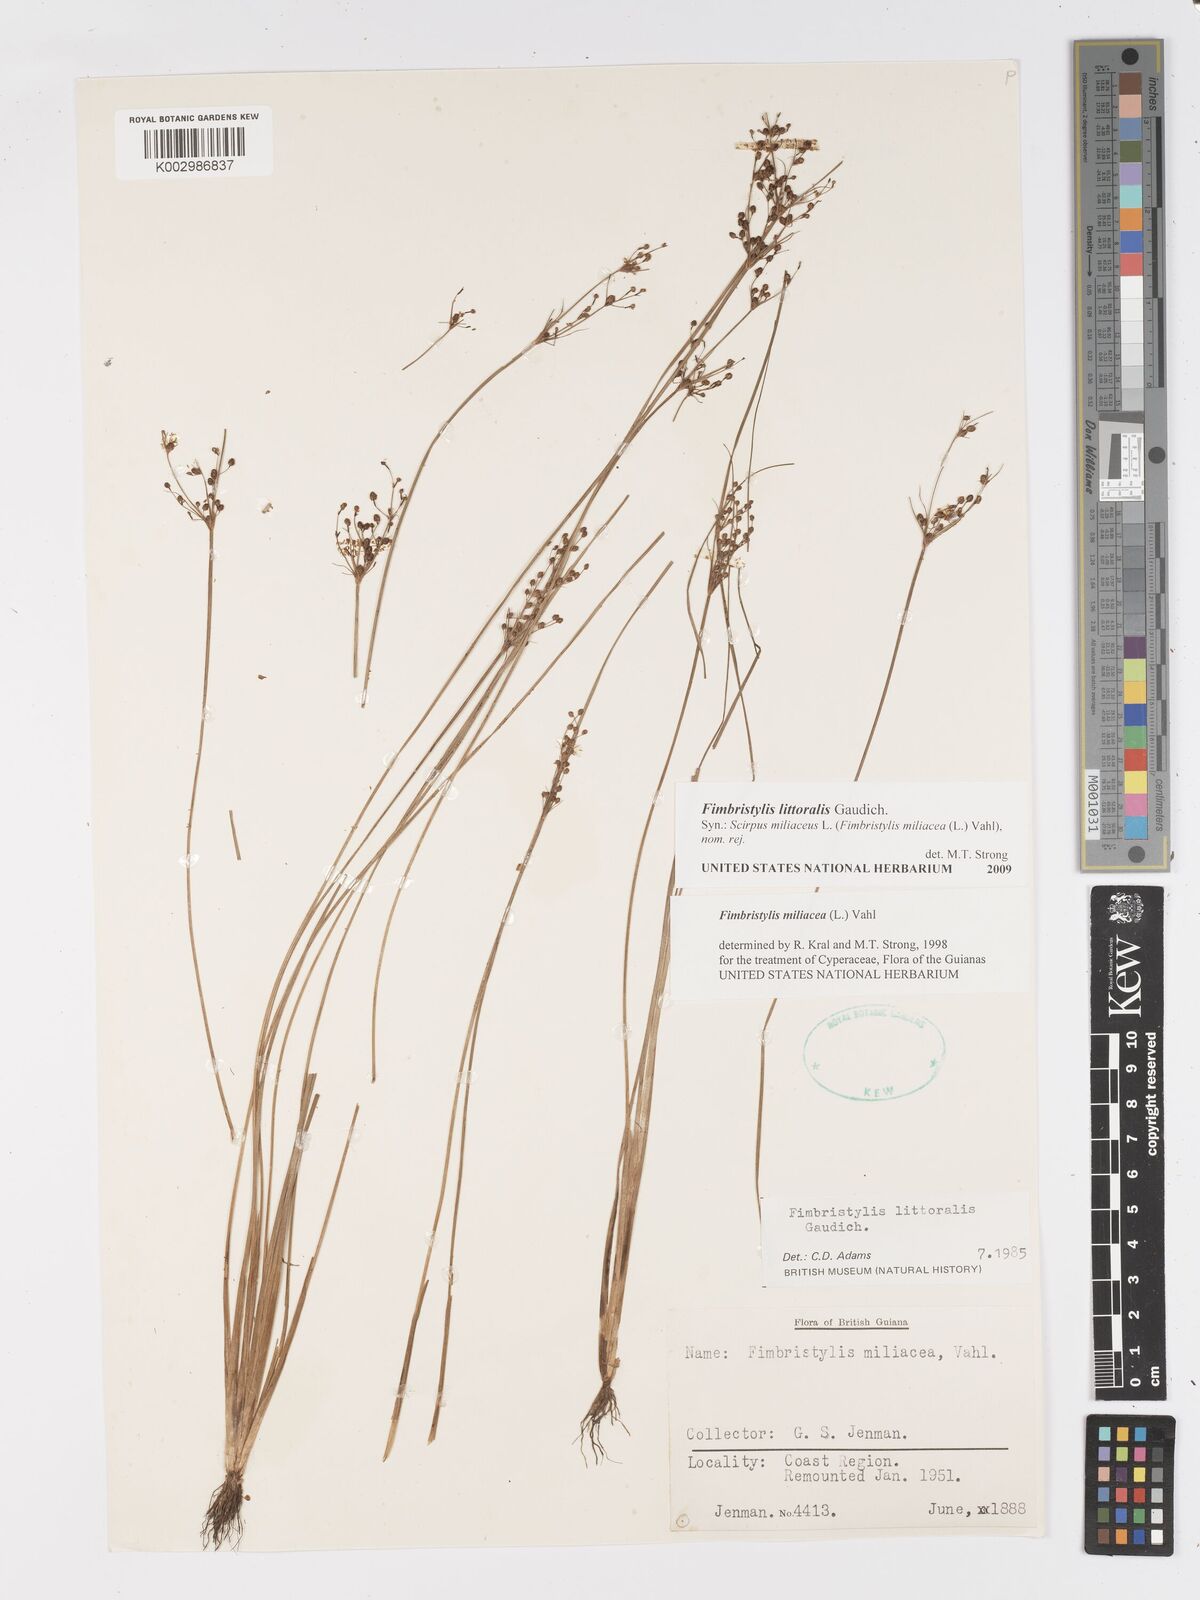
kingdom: Plantae
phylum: Tracheophyta
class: Liliopsida
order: Poales
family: Cyperaceae
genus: Fimbristylis
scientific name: Fimbristylis littoralis
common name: Fimbry
